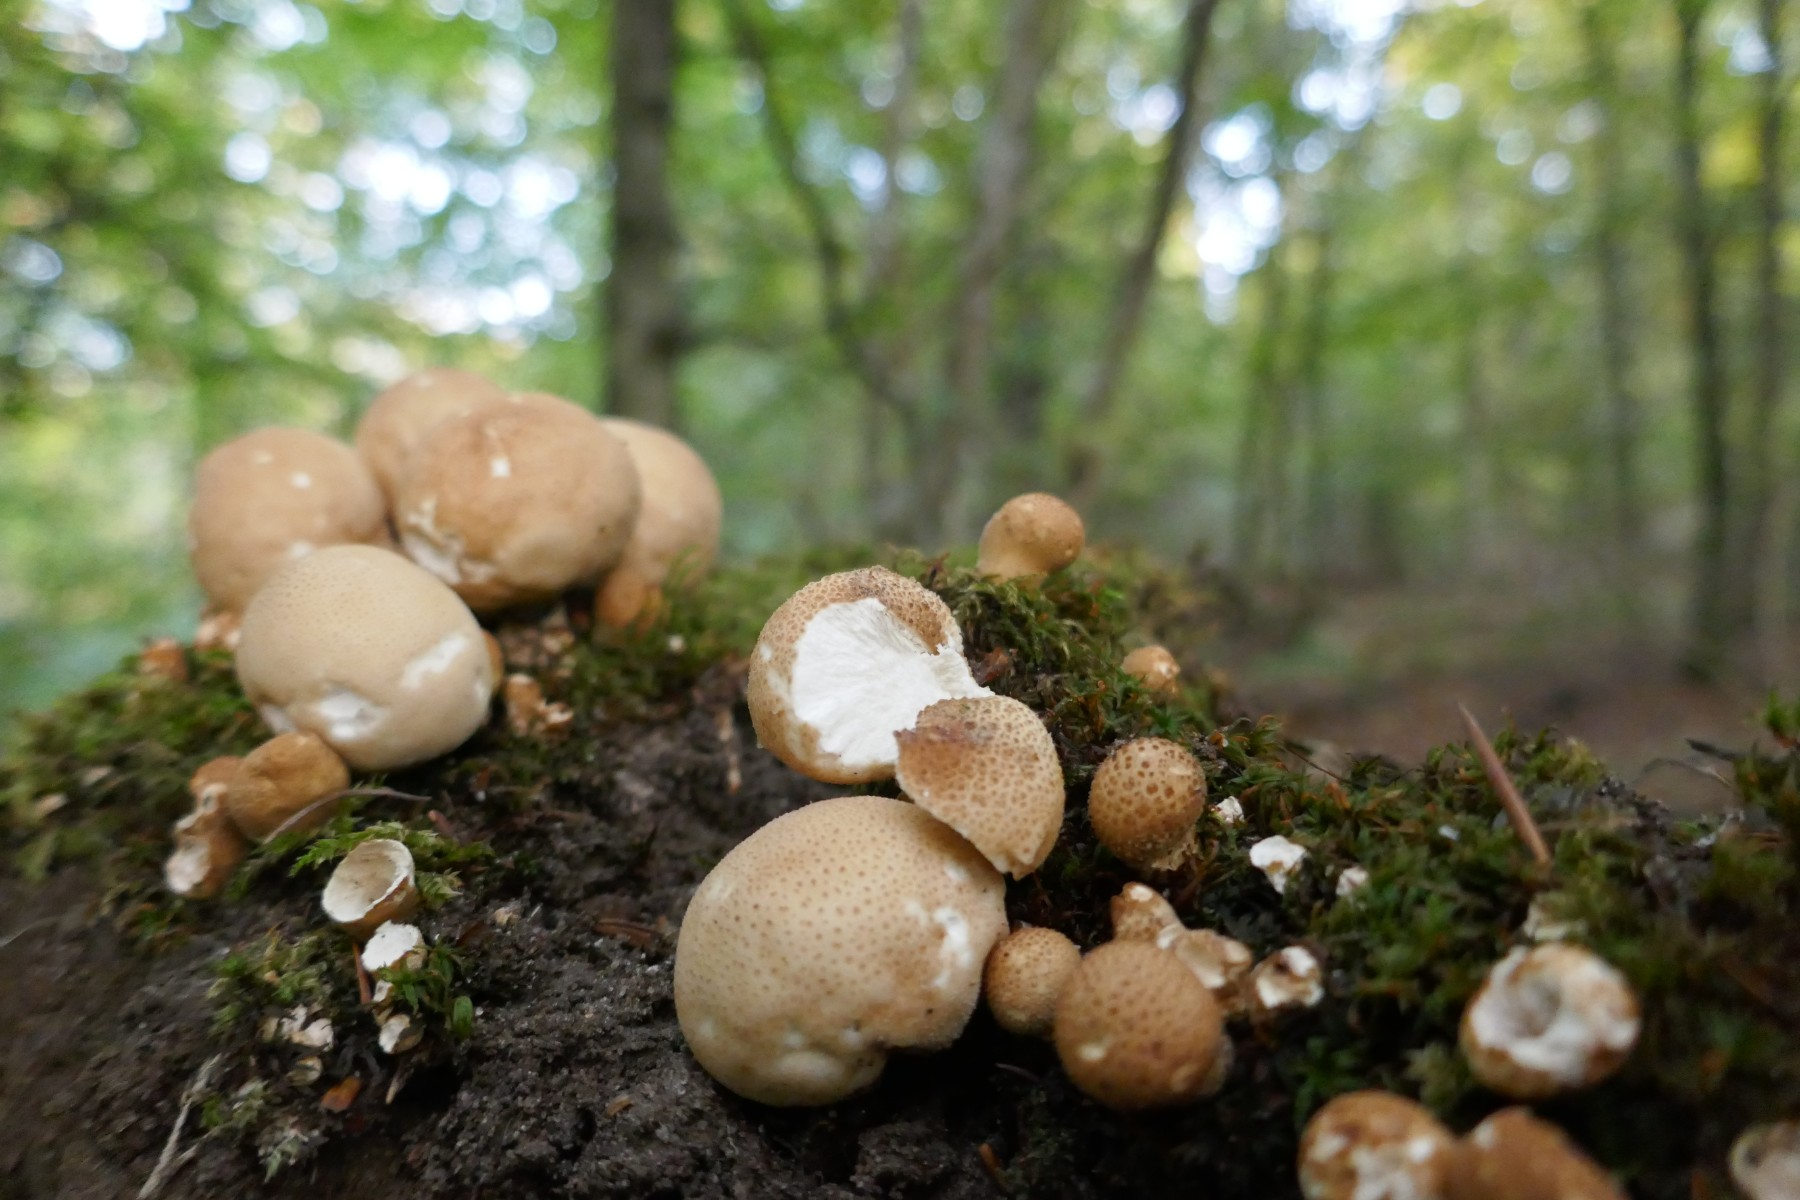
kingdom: Fungi
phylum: Basidiomycota
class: Agaricomycetes
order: Agaricales
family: Lycoperdaceae
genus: Apioperdon
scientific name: Apioperdon pyriforme
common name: pære-støvbold
